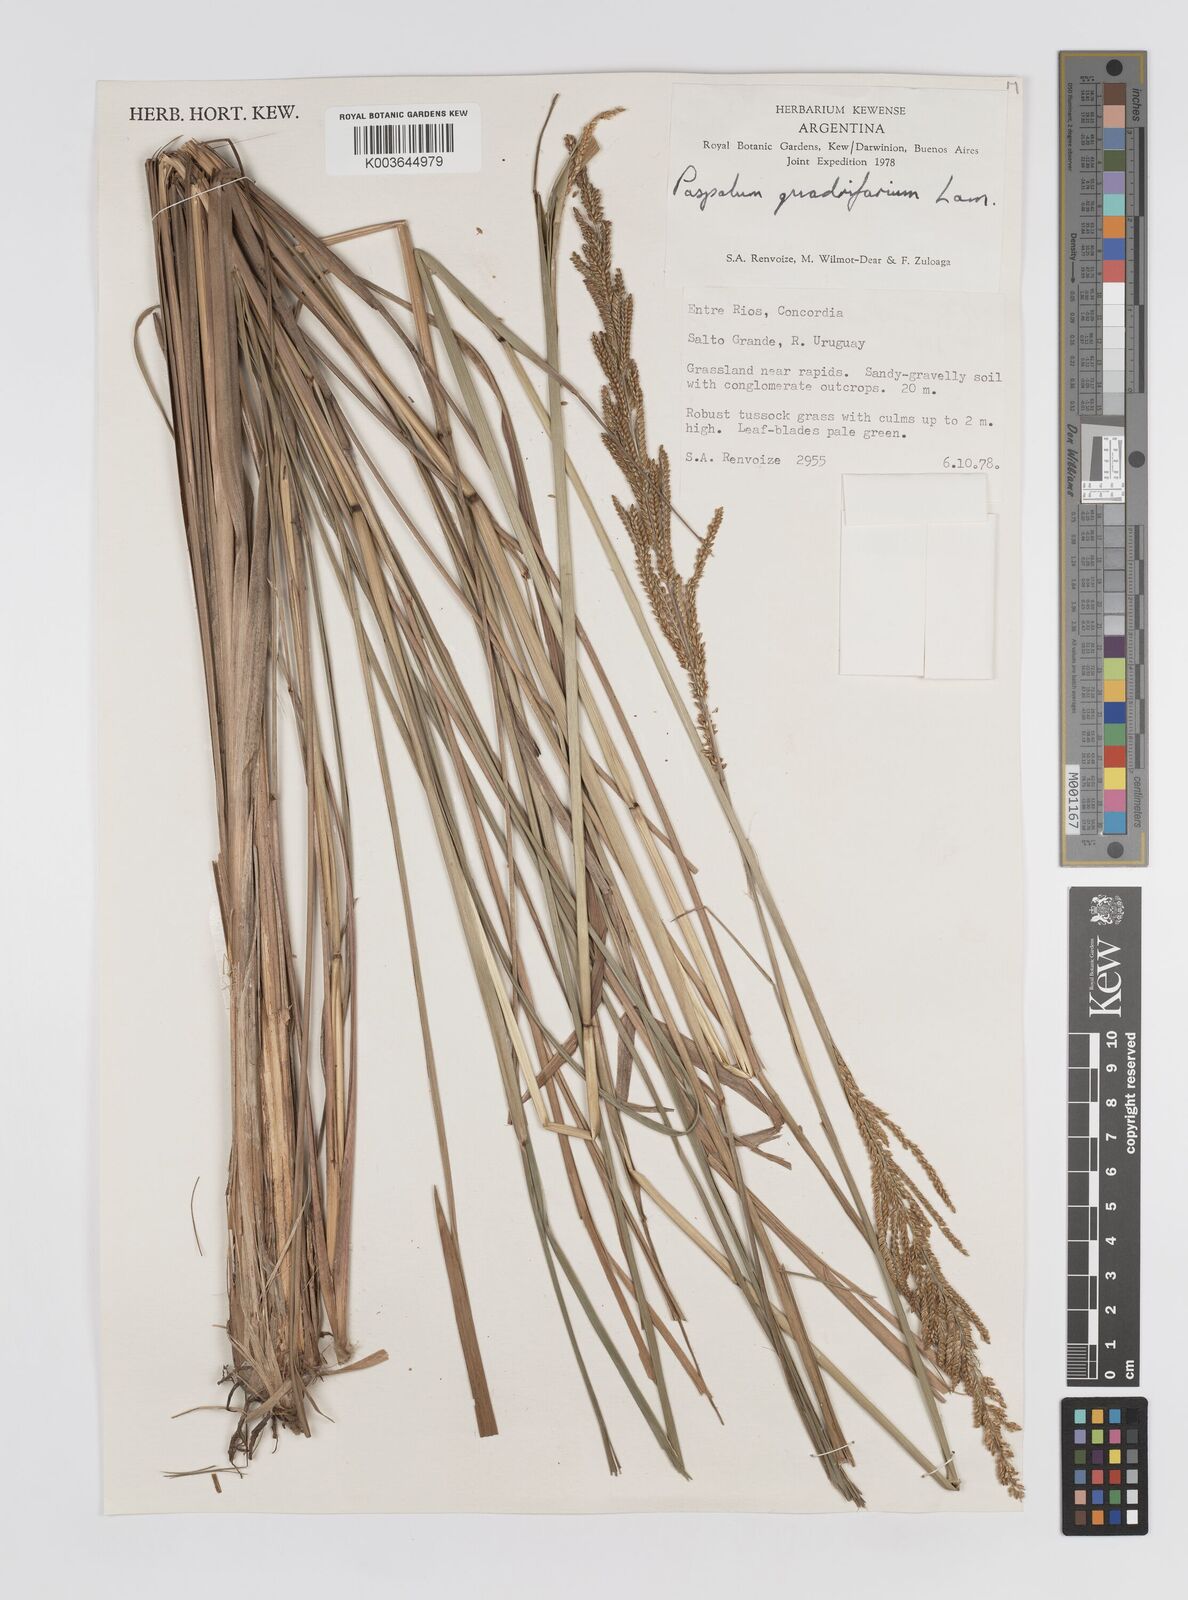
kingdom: Plantae
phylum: Tracheophyta
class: Liliopsida
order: Poales
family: Poaceae
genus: Paspalum
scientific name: Paspalum quadrifarium
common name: Tussock paspalum
